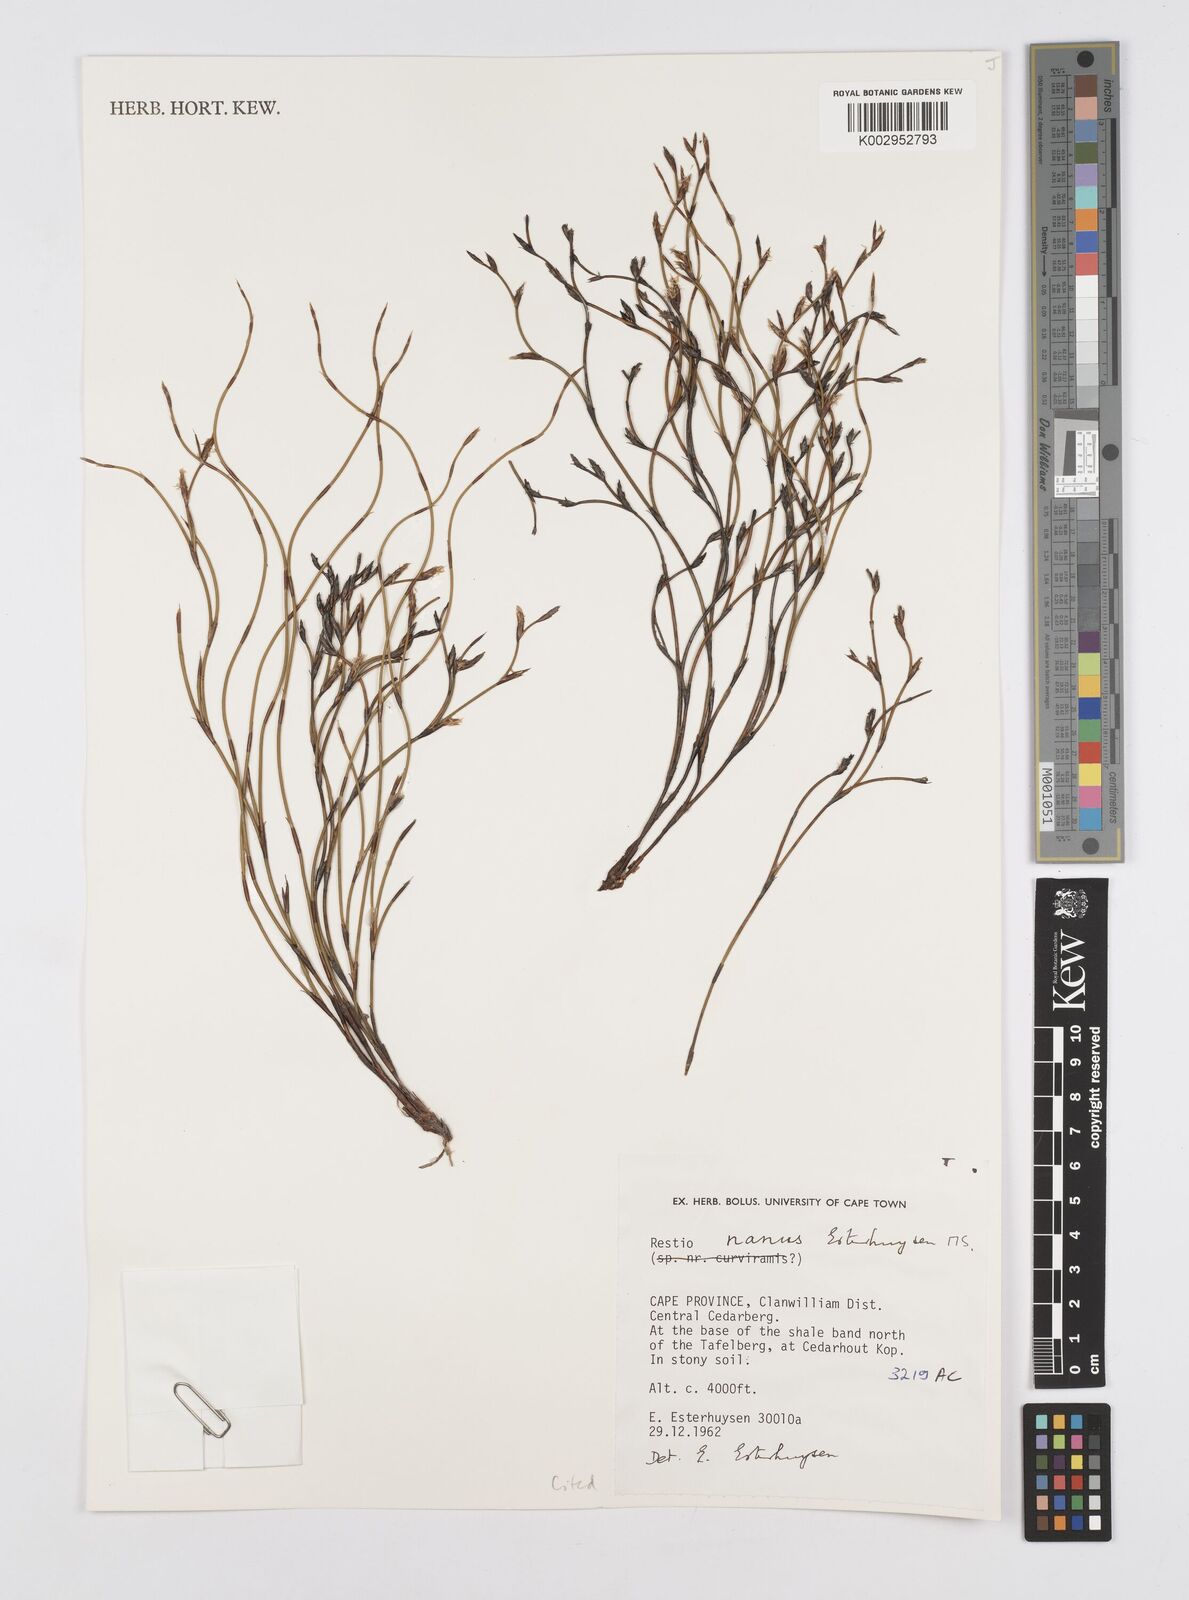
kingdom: Plantae
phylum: Tracheophyta
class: Liliopsida
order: Poales
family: Restionaceae
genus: Restio
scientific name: Restio nanus
